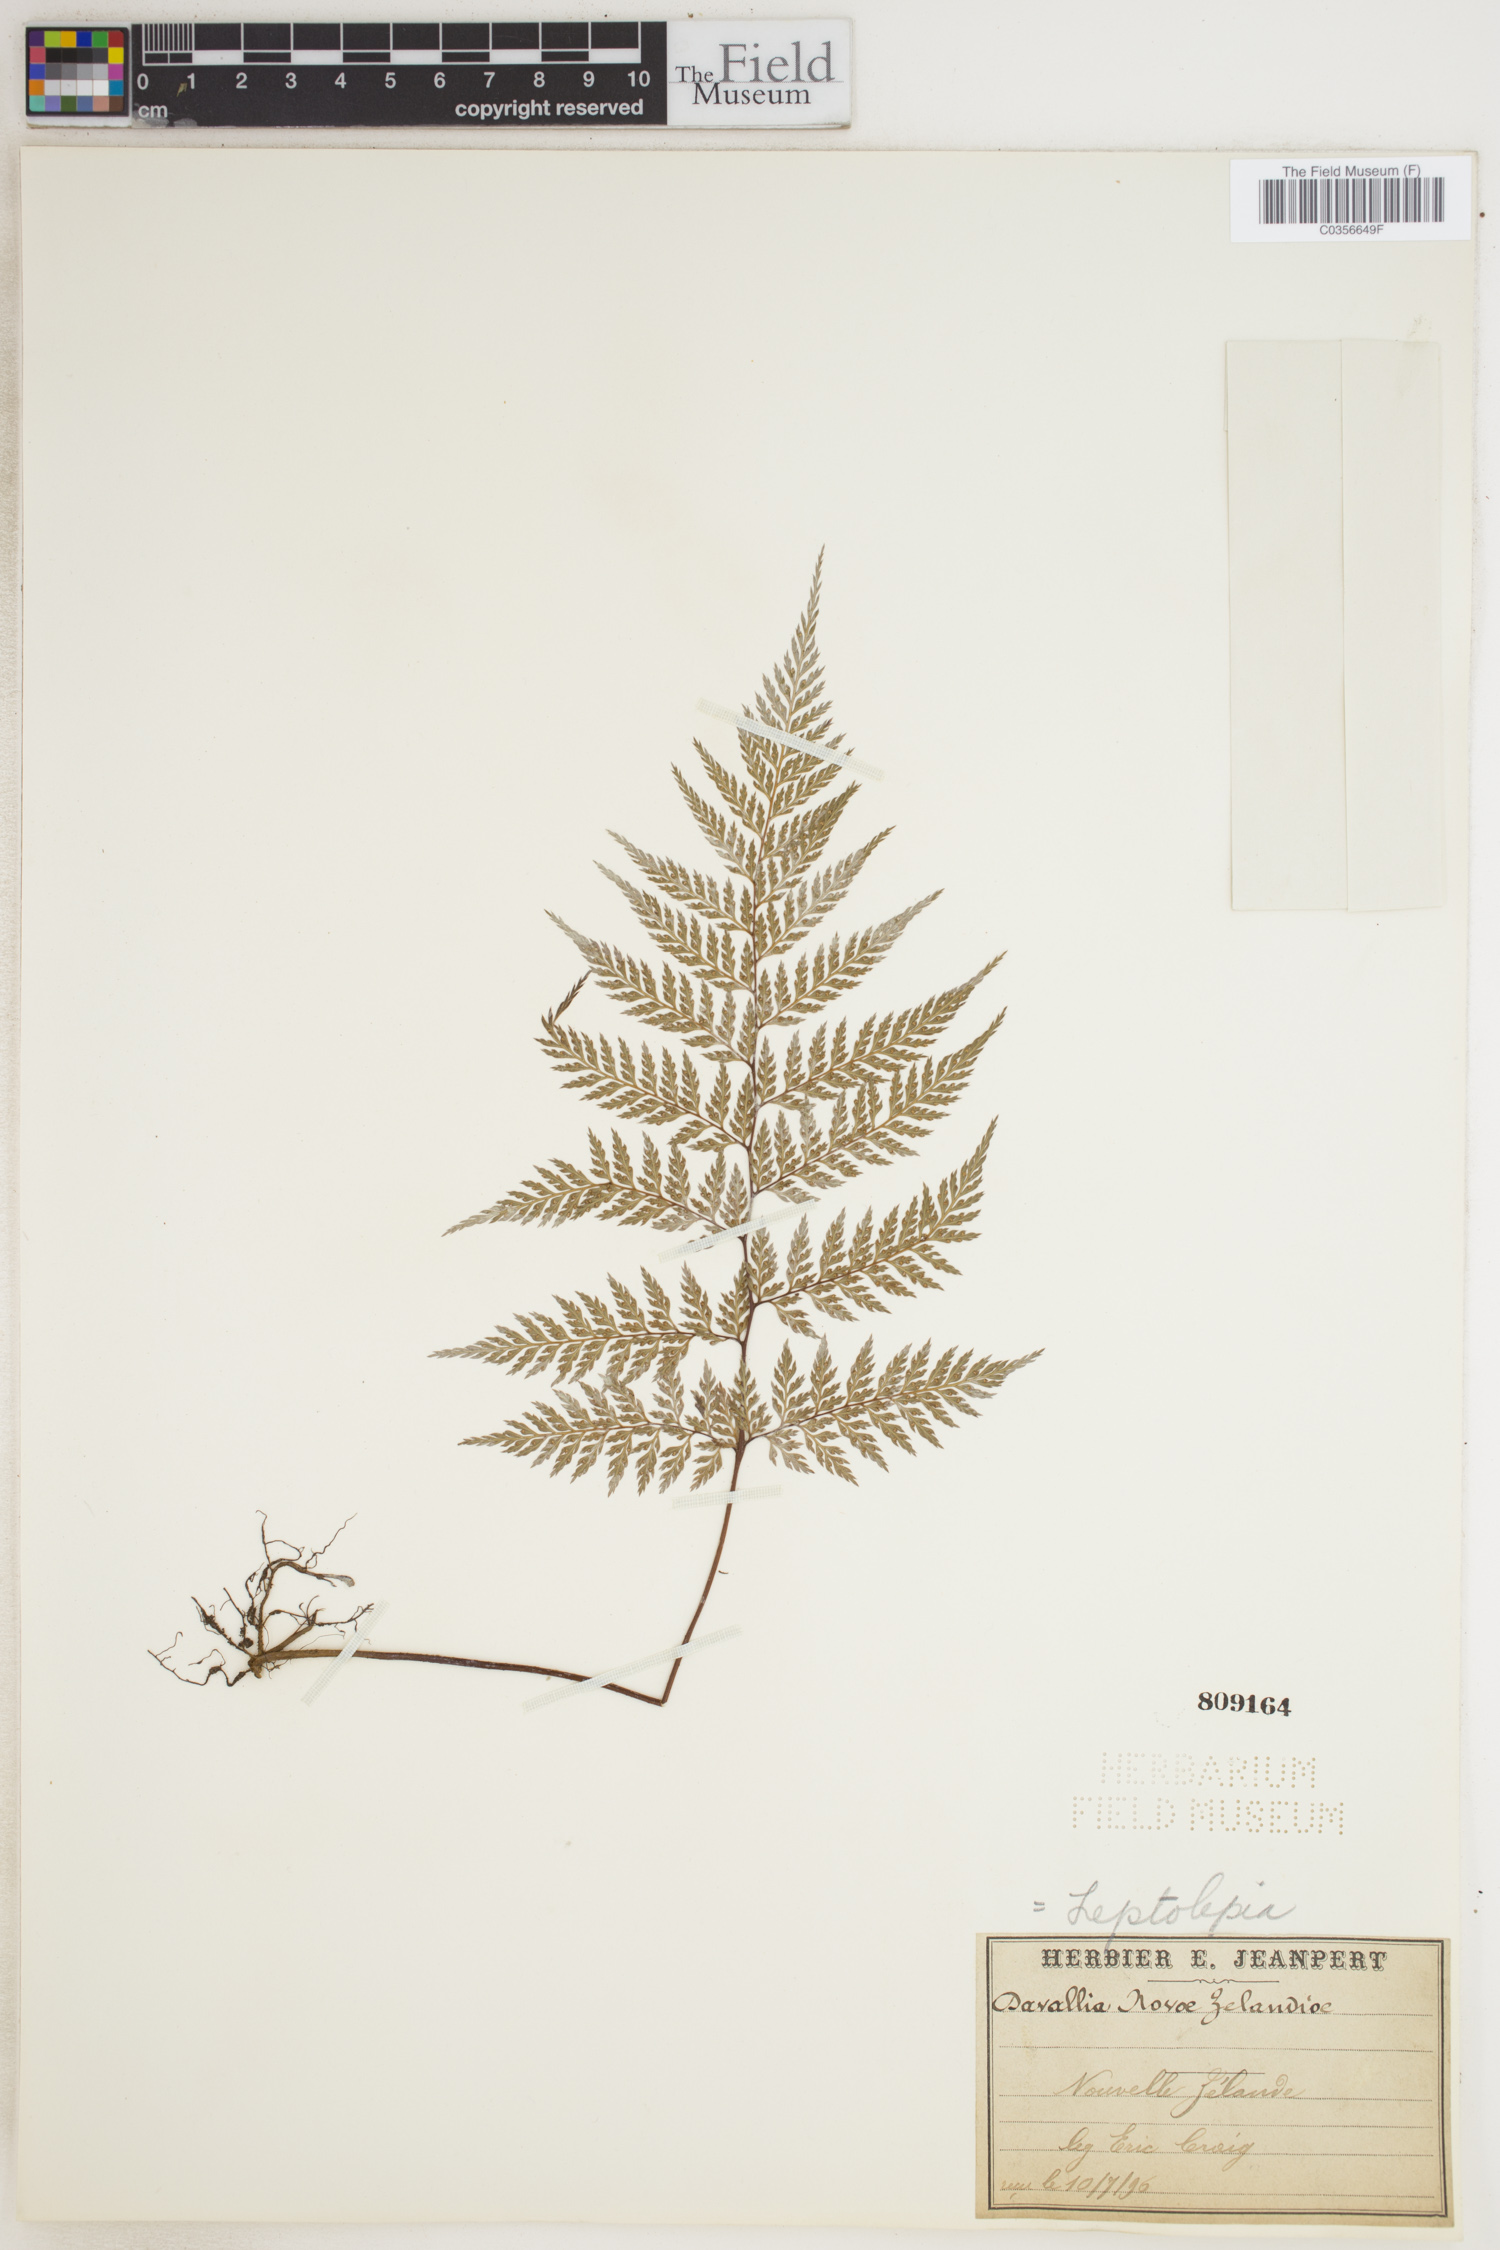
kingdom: Plantae
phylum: Tracheophyta
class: Polypodiopsida
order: Polypodiales
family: Dennstaedtiaceae
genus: Dennstaedtia
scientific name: Dennstaedtia novae-zelandiae
